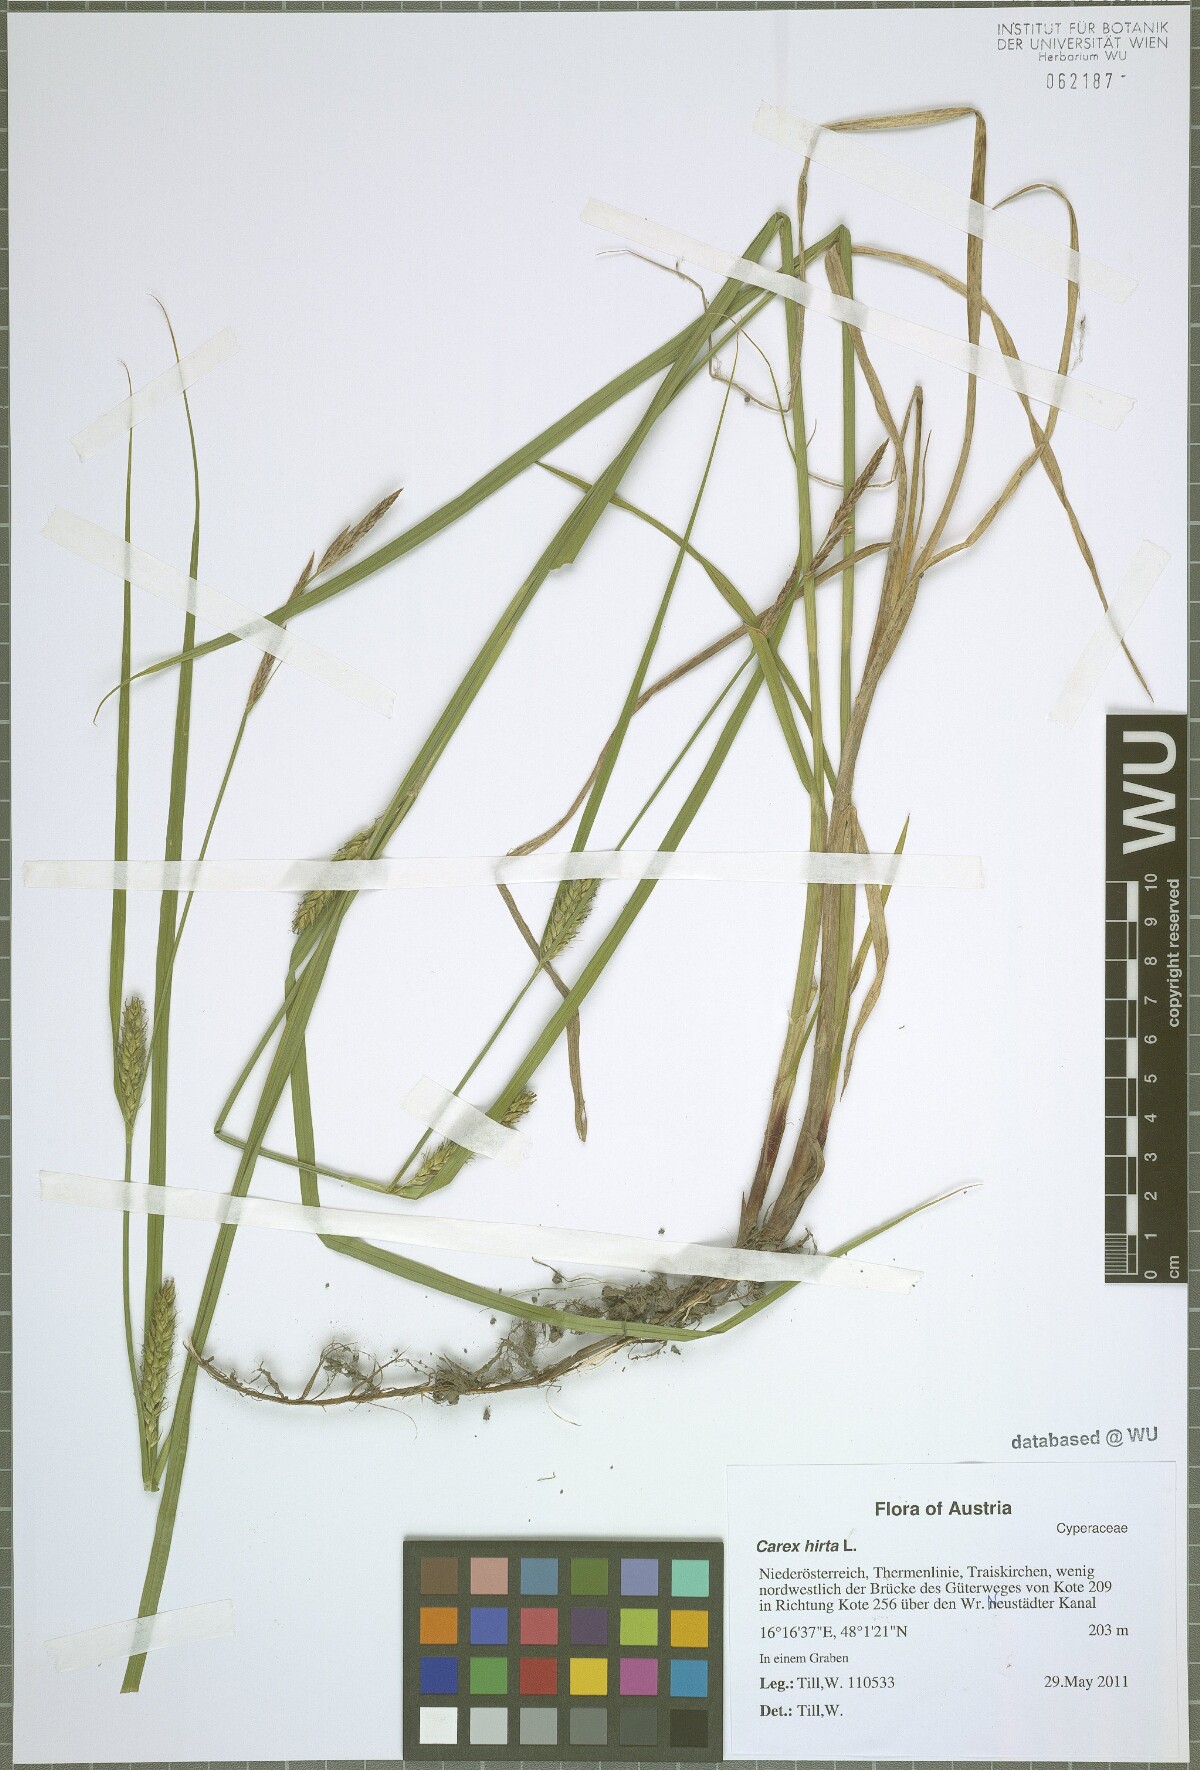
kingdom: Plantae
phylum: Tracheophyta
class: Liliopsida
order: Poales
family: Cyperaceae
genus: Carex
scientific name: Carex hirta
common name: Hairy sedge
